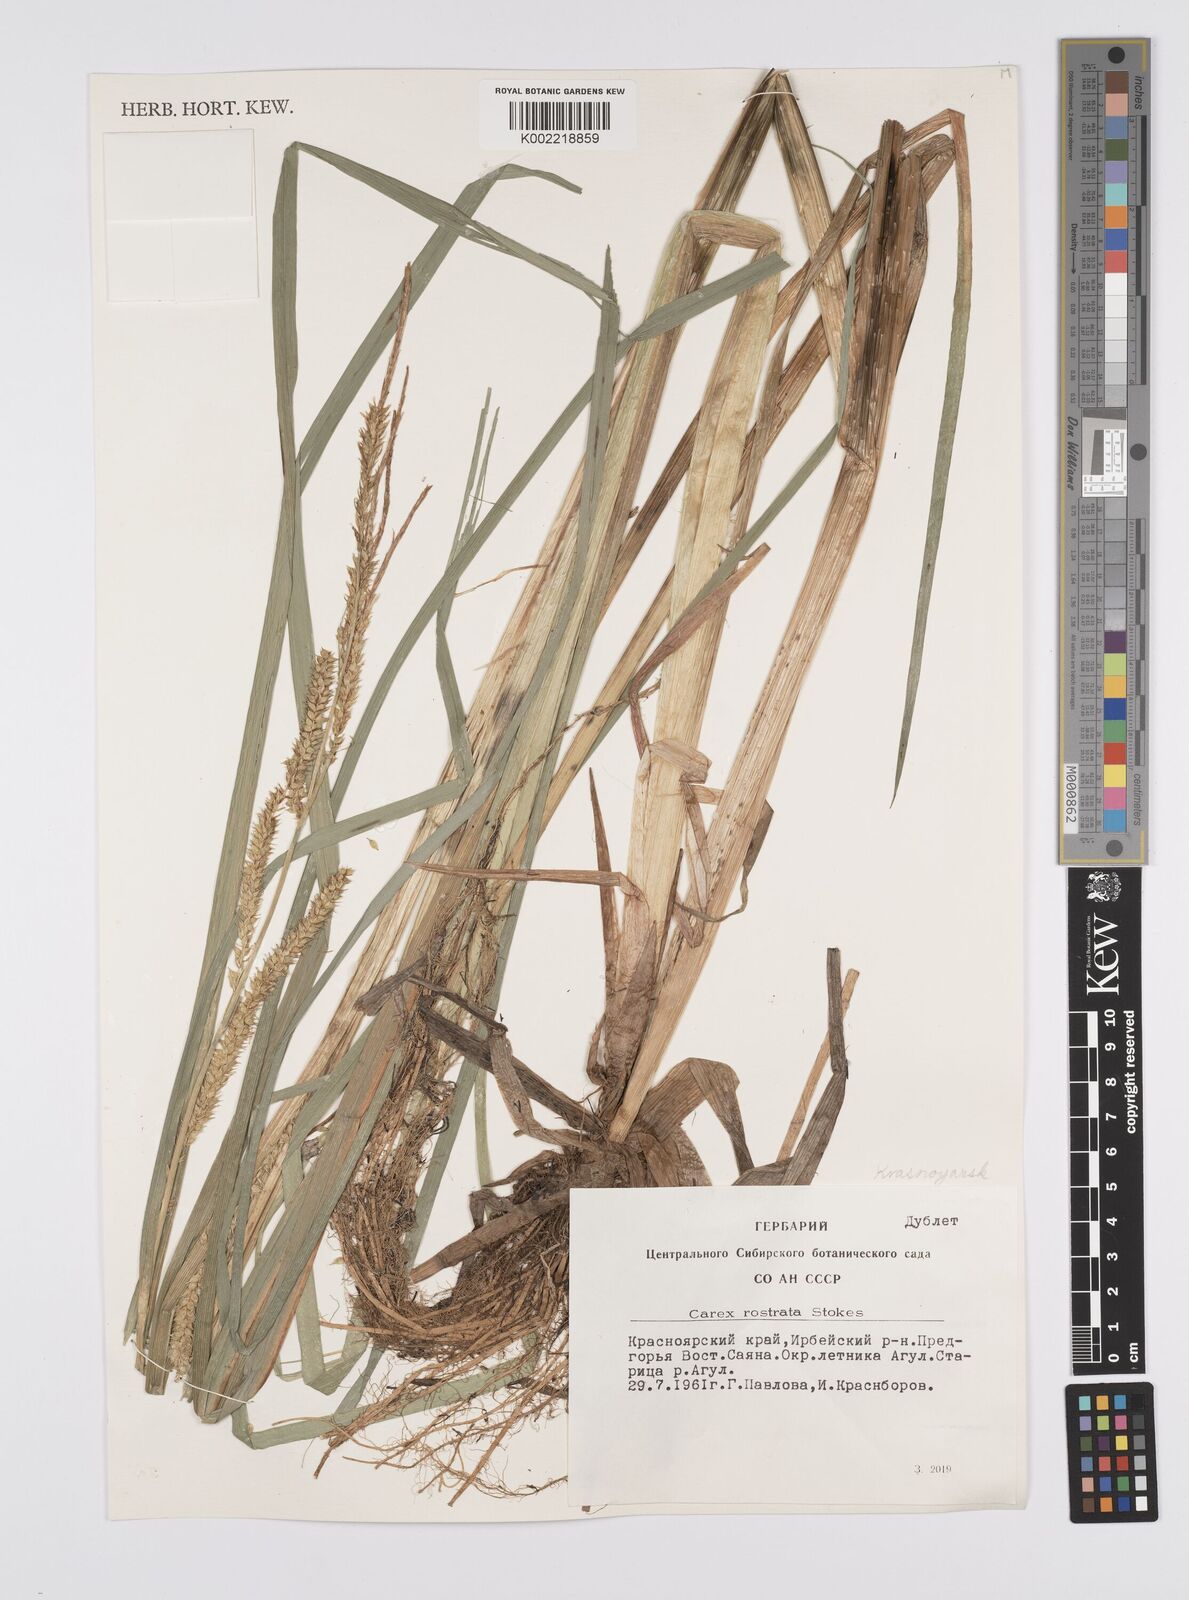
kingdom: Plantae
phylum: Tracheophyta
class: Liliopsida
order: Poales
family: Cyperaceae
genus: Carex
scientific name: Carex michauxiana
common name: Michaux's sedge
